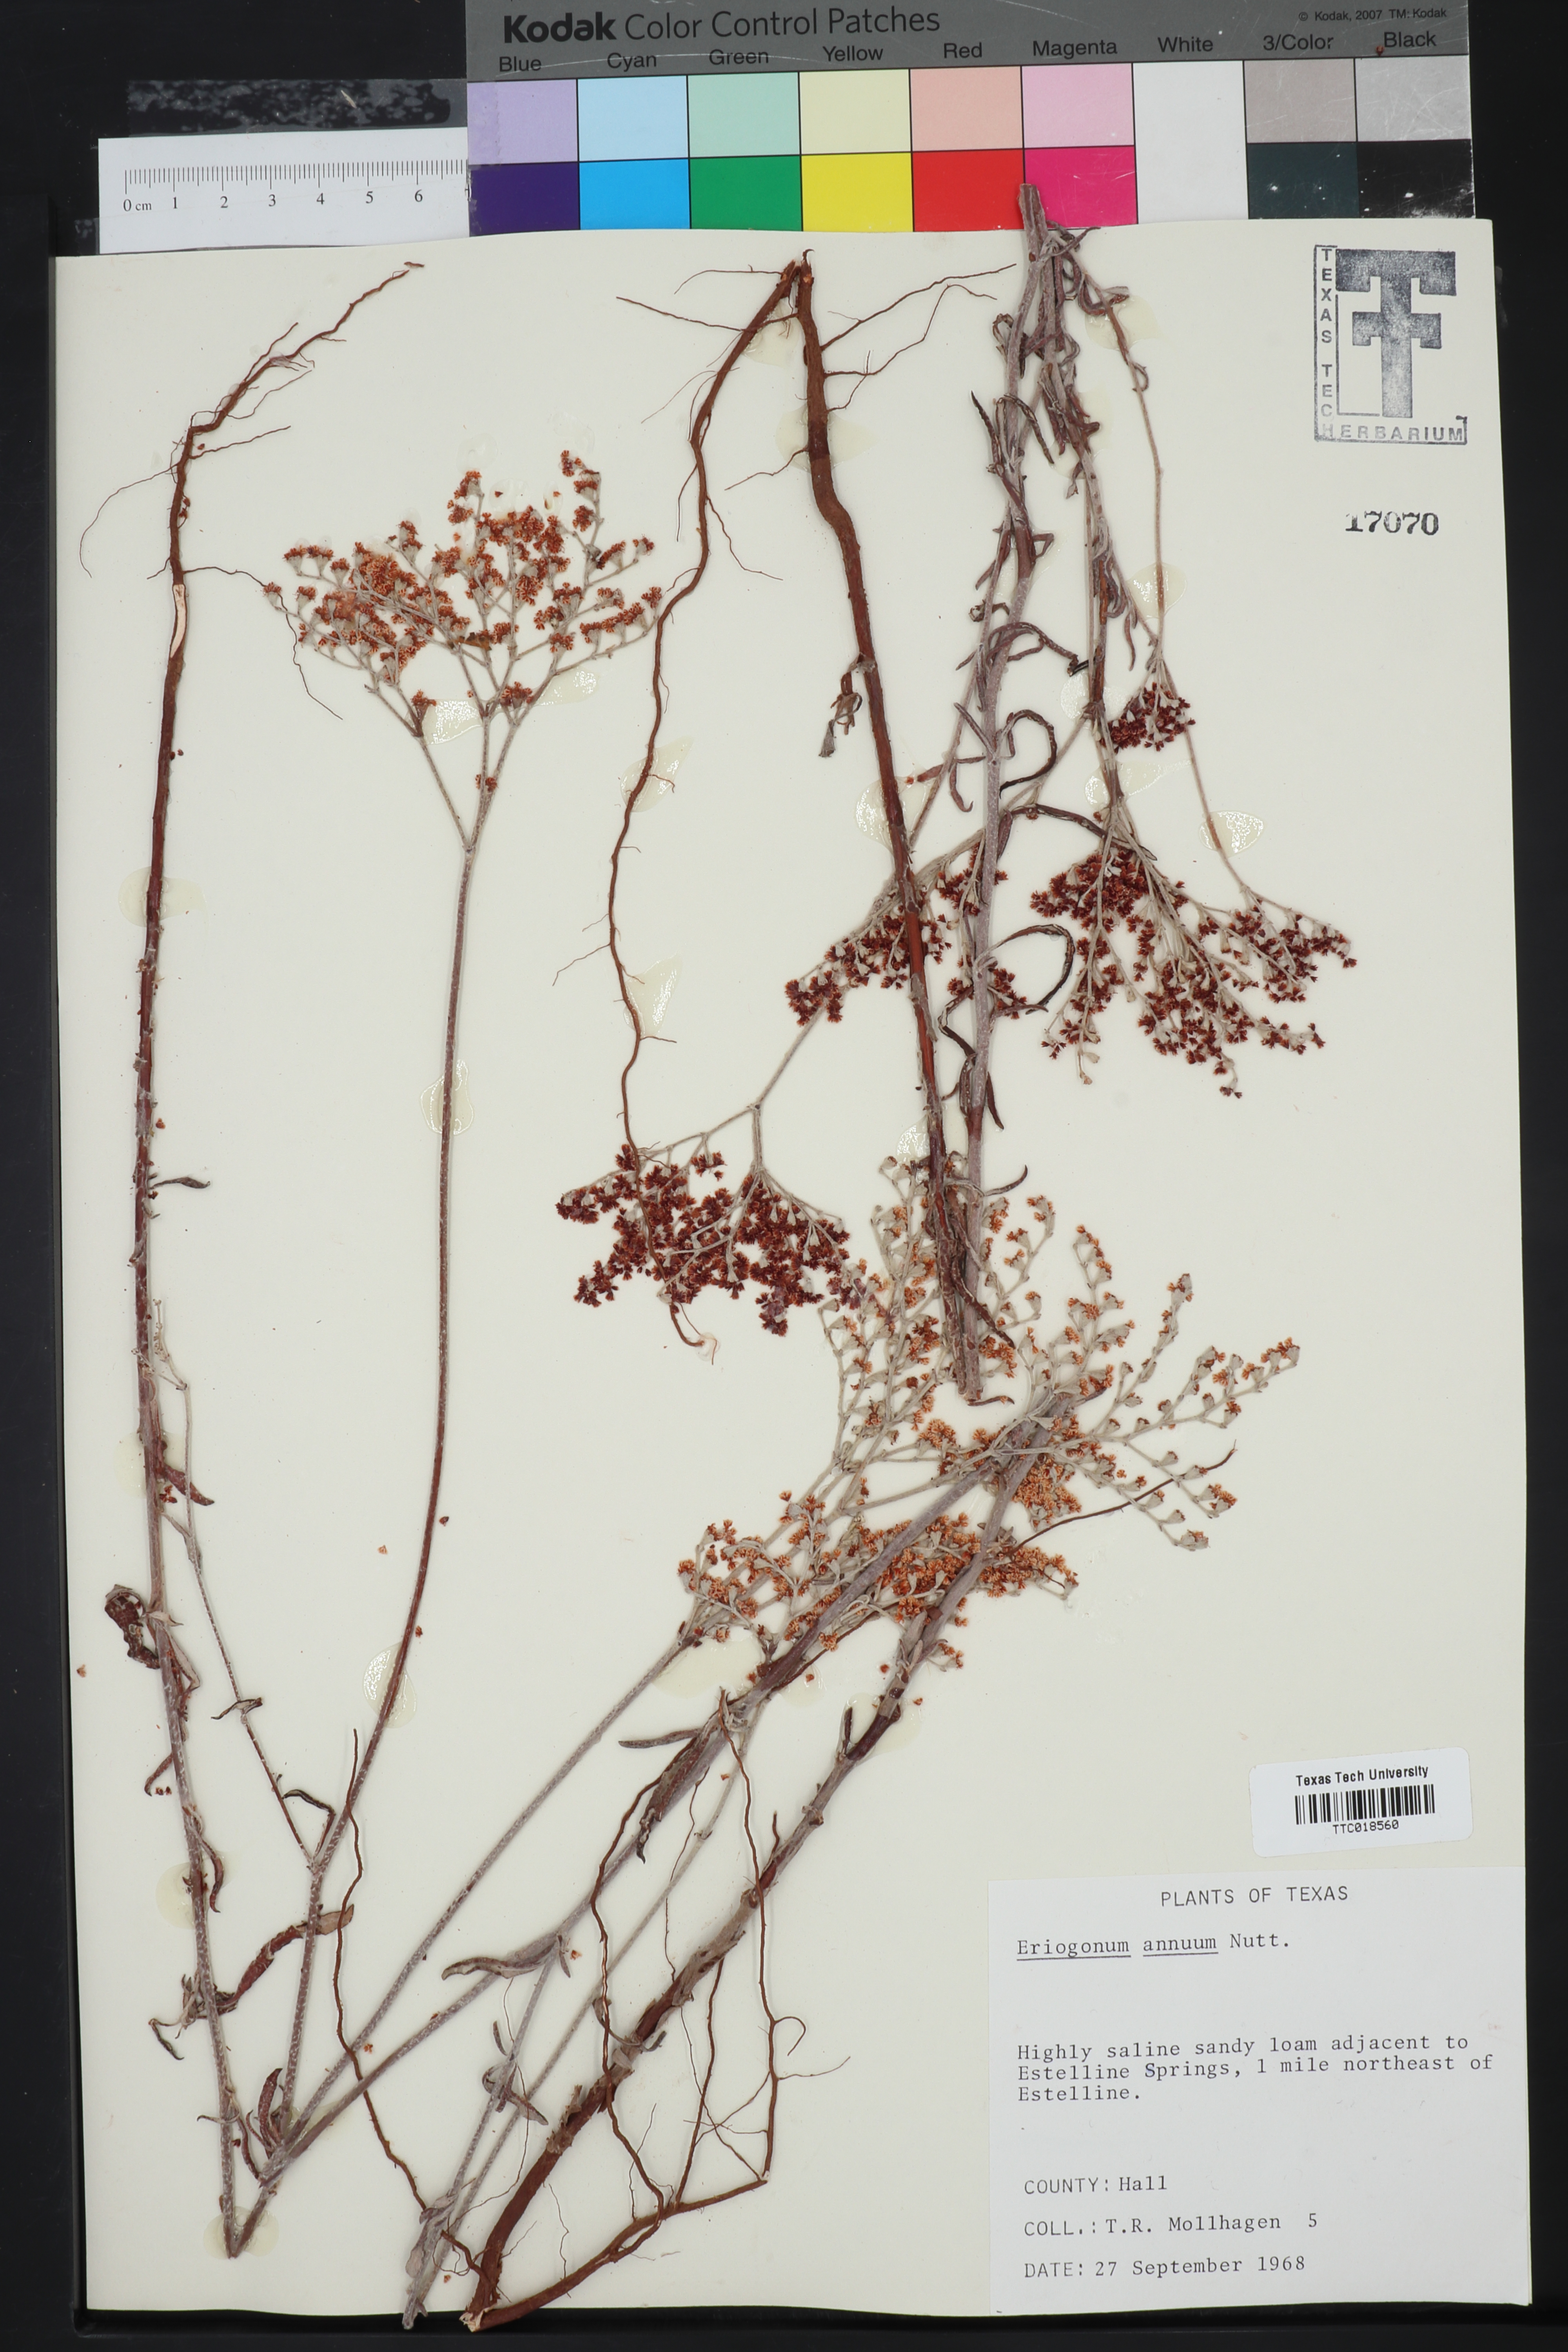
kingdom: Plantae
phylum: Tracheophyta
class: Magnoliopsida
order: Caryophyllales
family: Polygonaceae
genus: Eriogonum
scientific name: Eriogonum annuum
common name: Annual wild buckwheat
